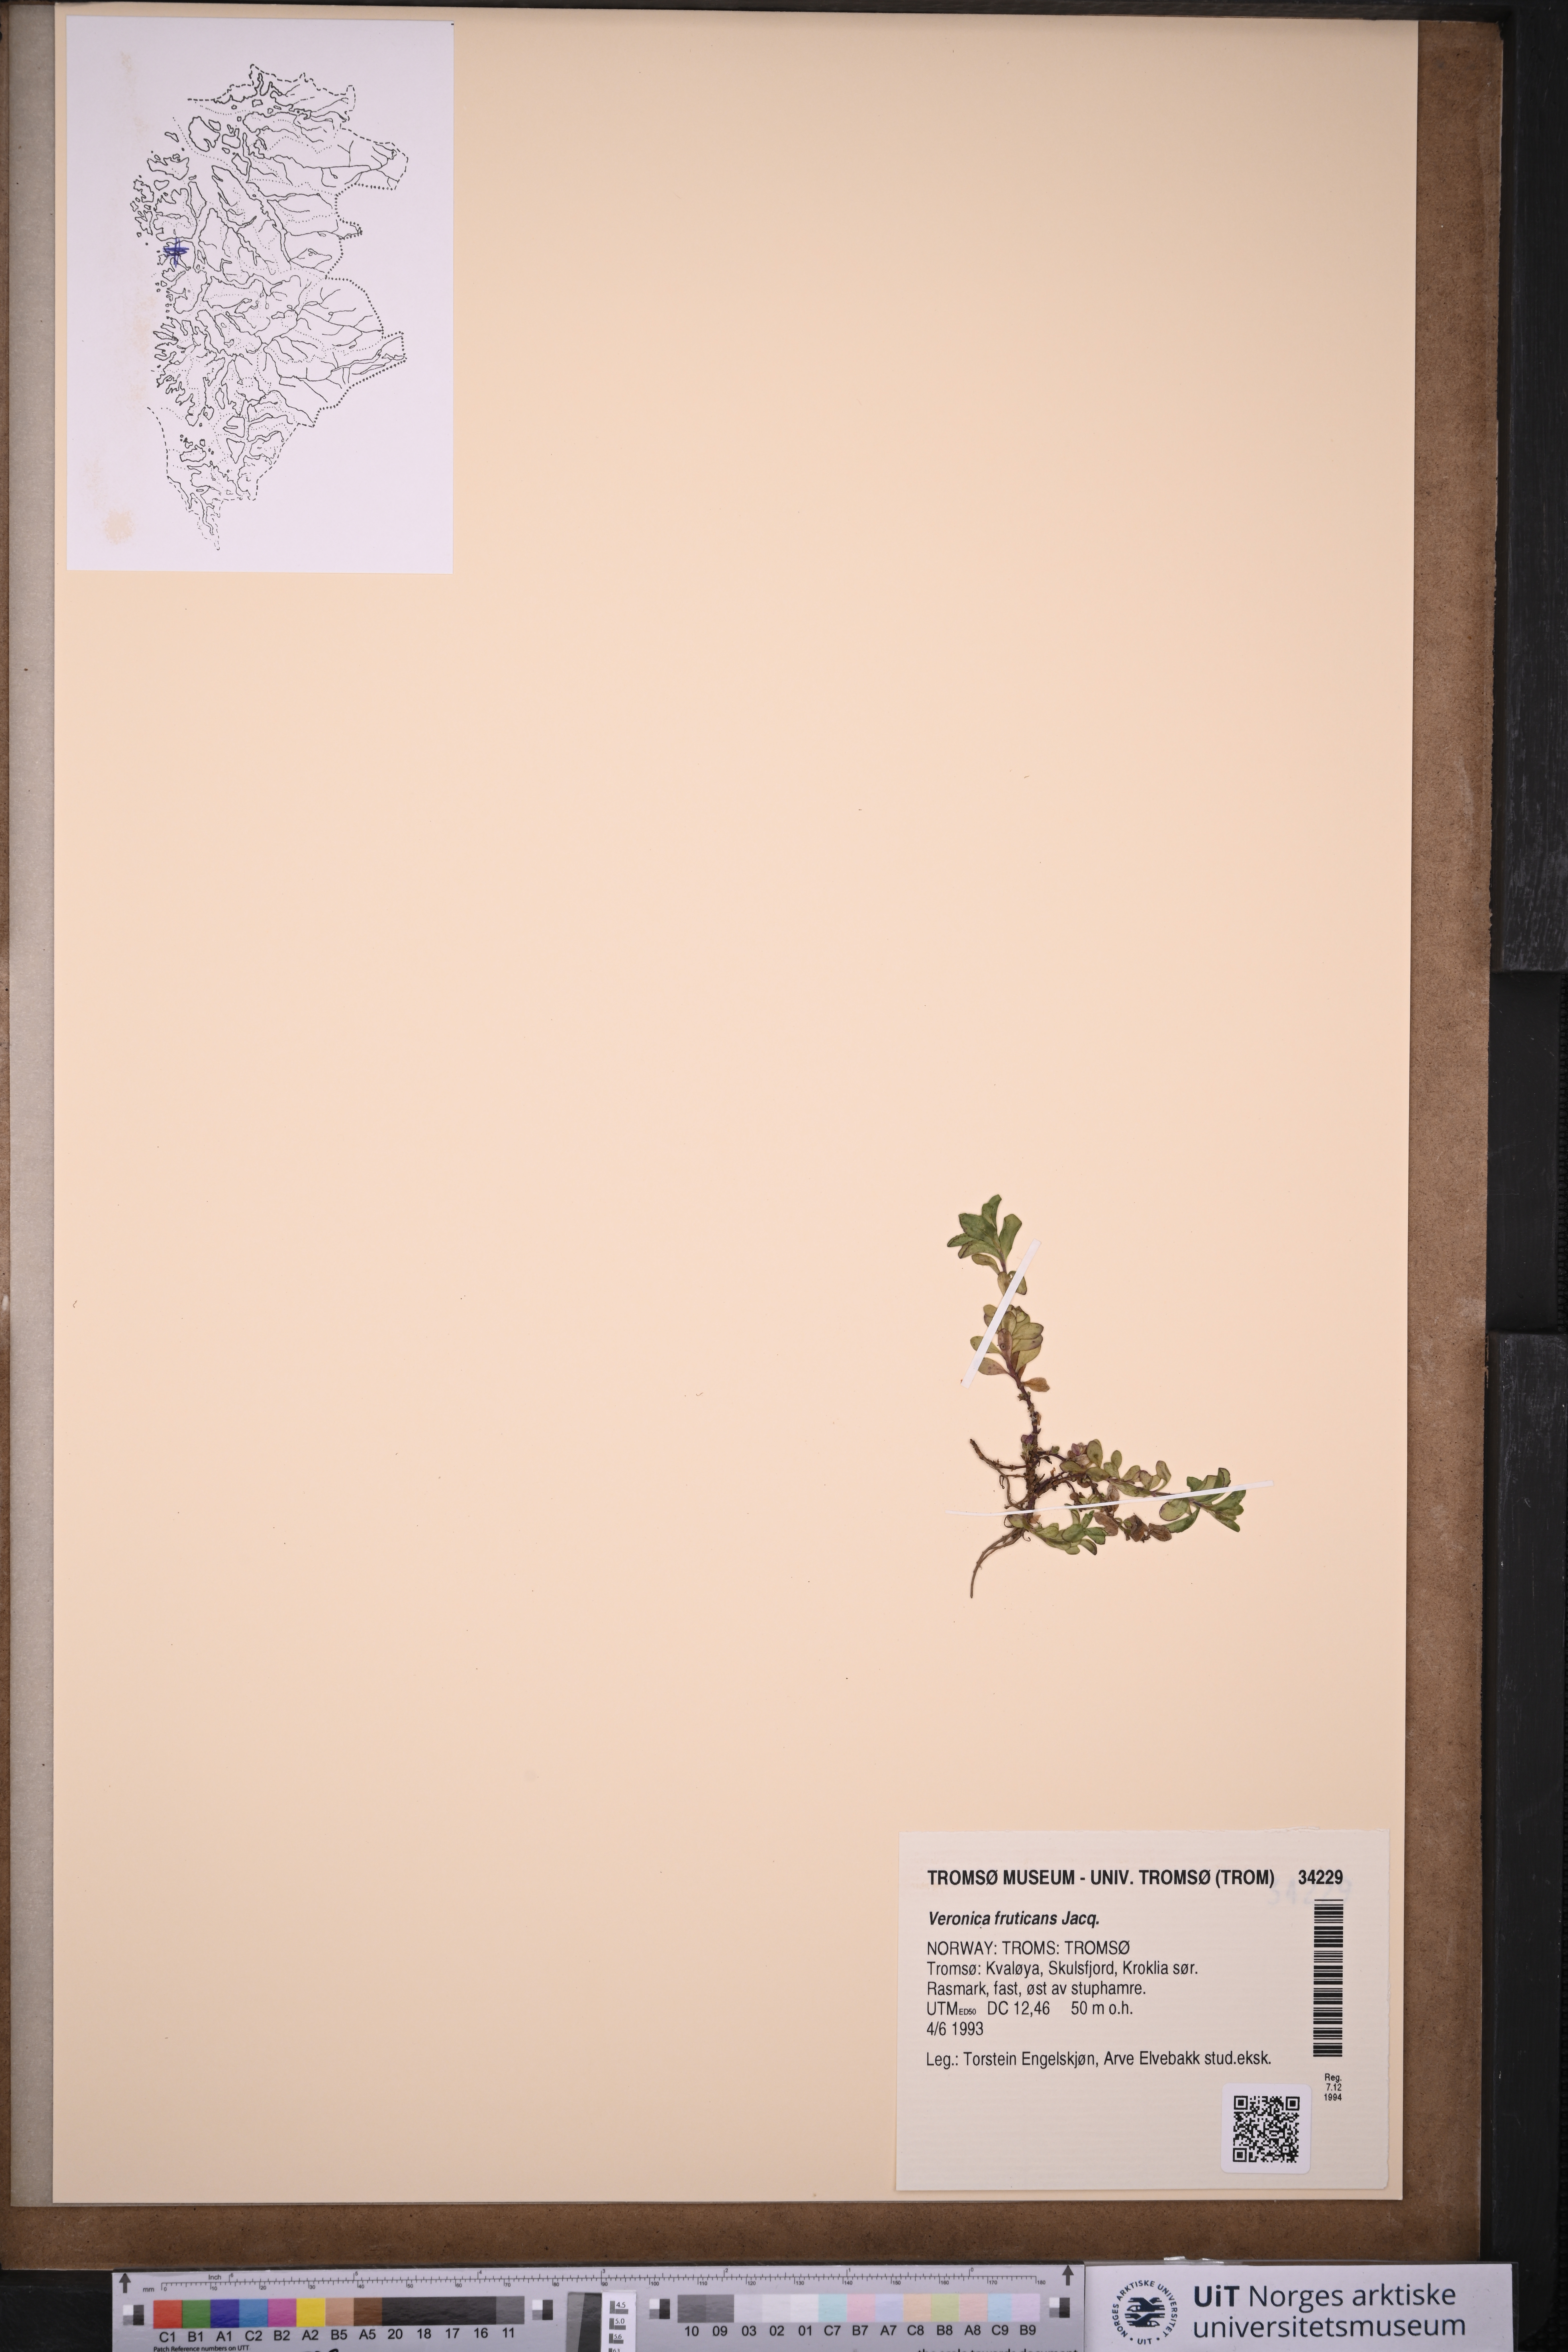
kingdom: Plantae
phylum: Tracheophyta
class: Magnoliopsida
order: Lamiales
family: Plantaginaceae
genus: Veronica
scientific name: Veronica fruticans
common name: Rock speedwell
